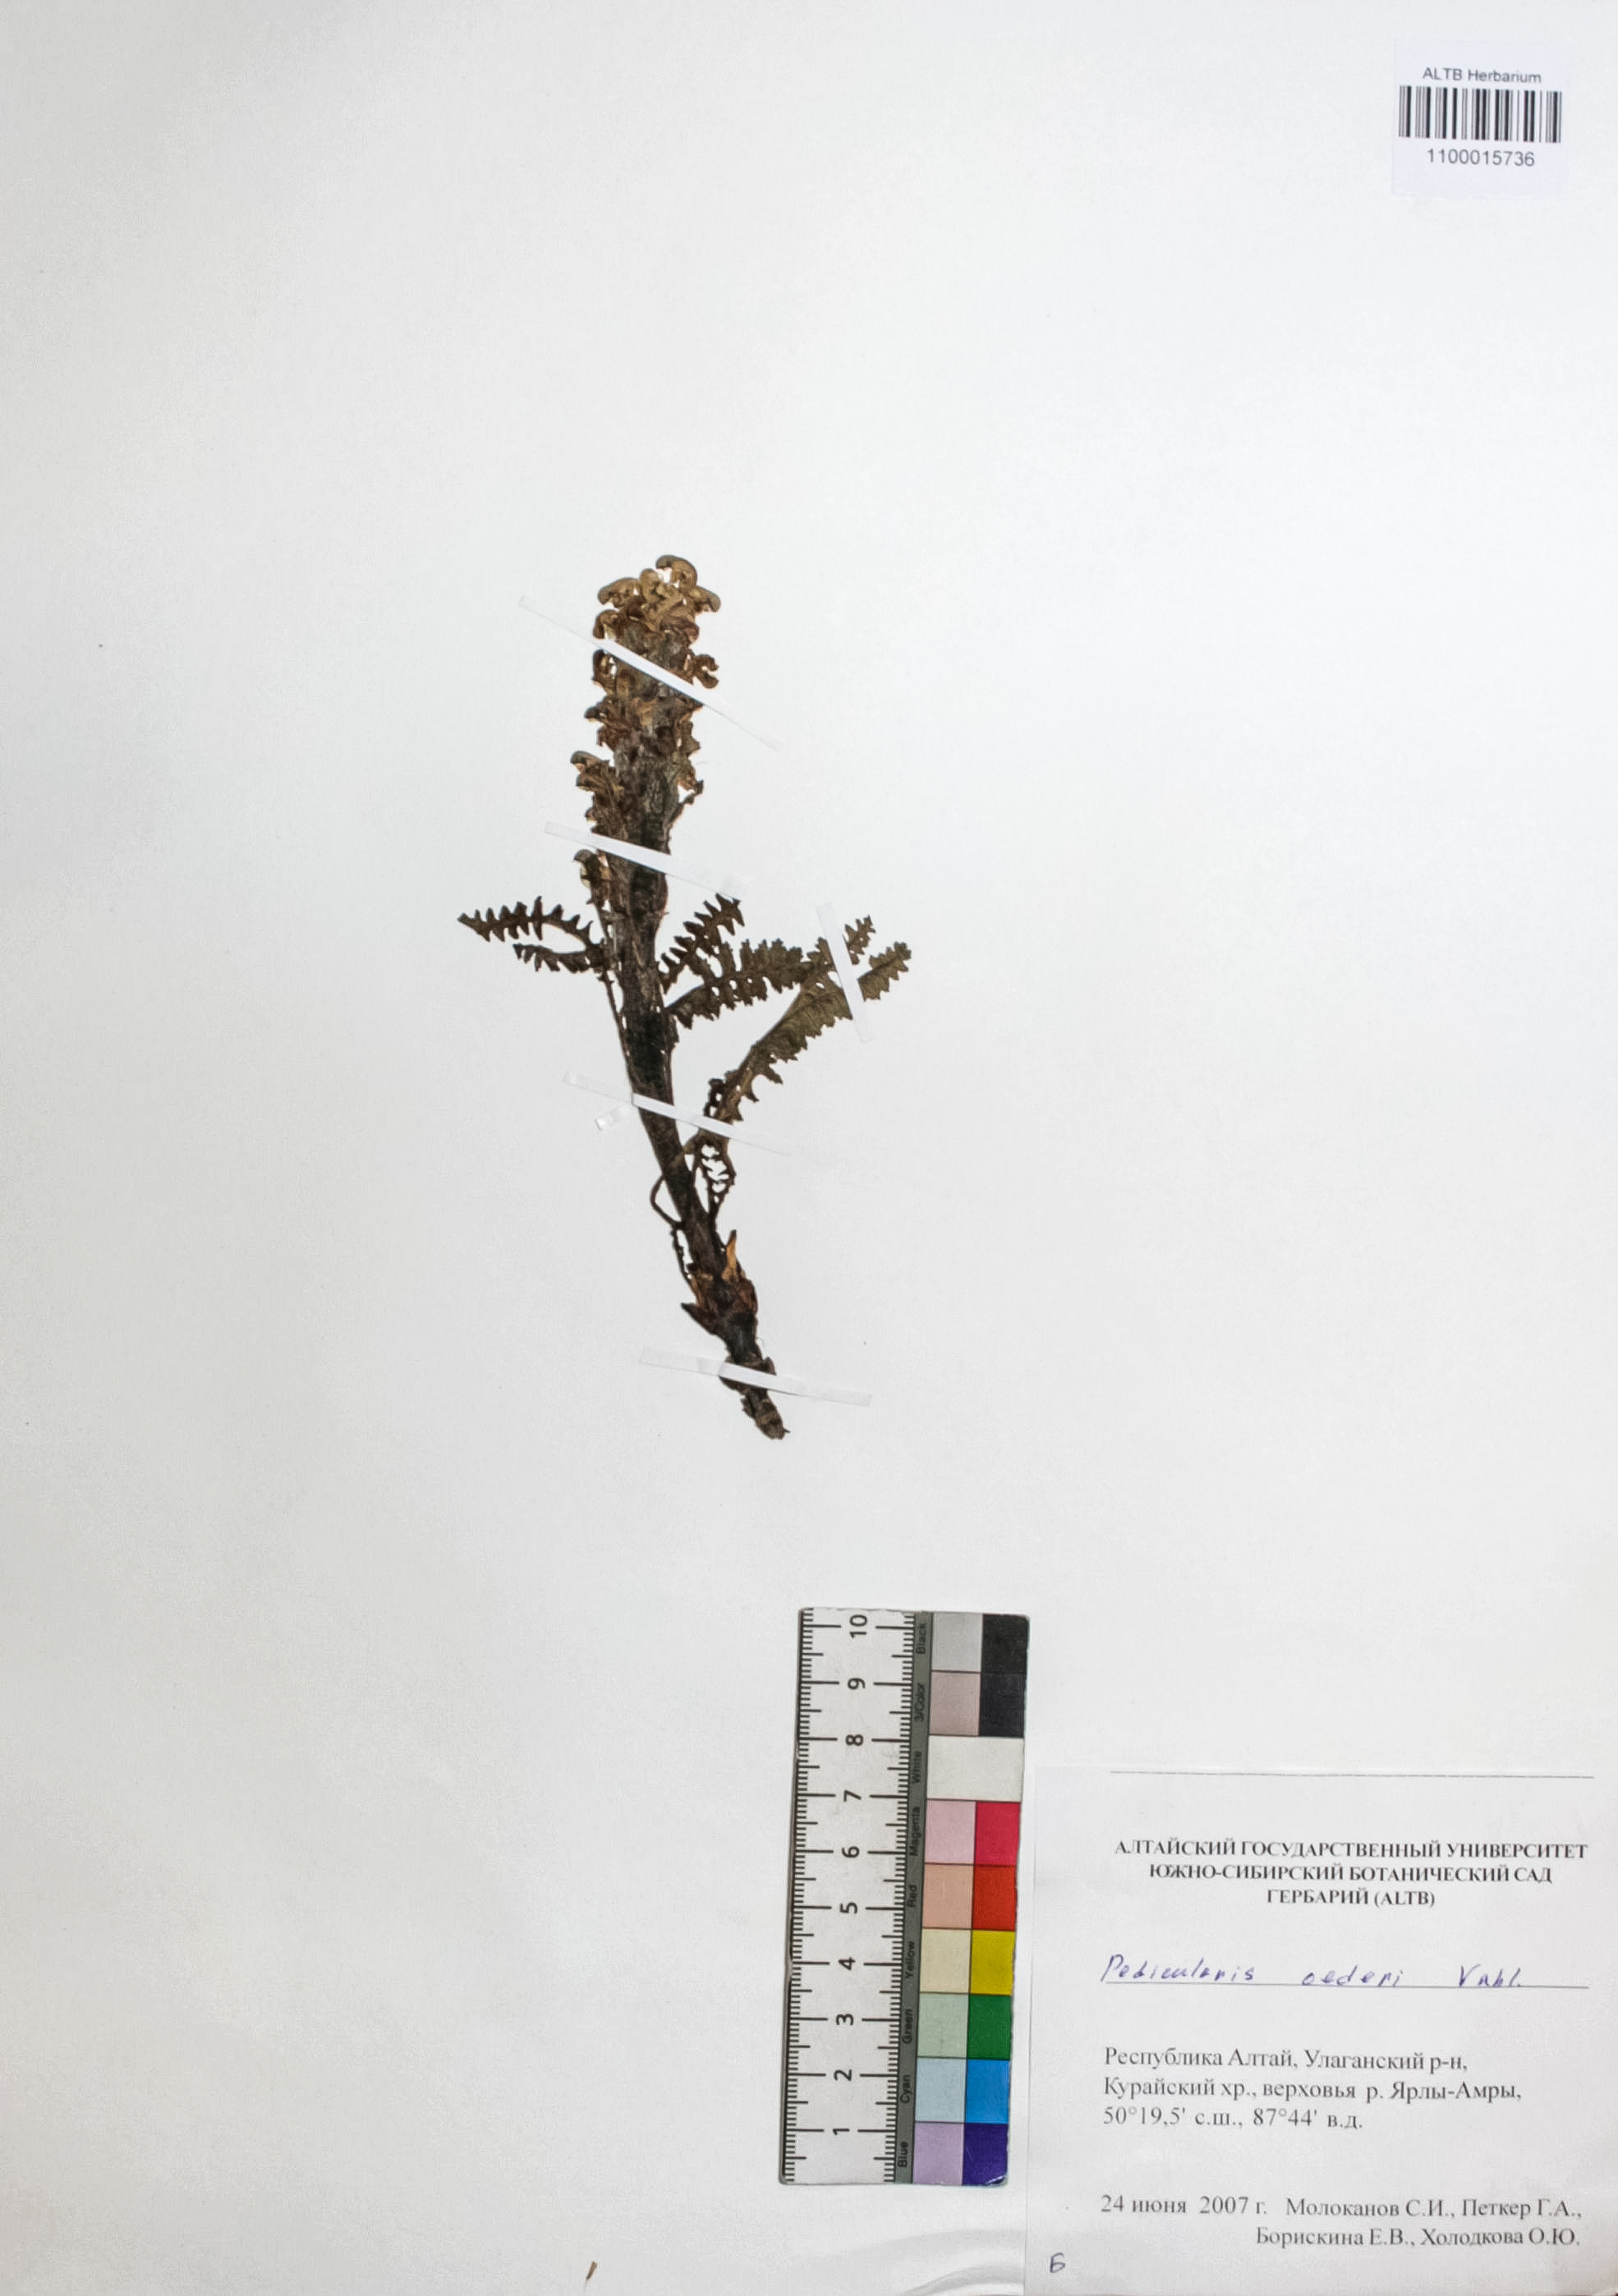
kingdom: Plantae
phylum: Tracheophyta
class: Magnoliopsida
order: Caryophyllales
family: Caryophyllaceae
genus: Silene
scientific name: Silene graminifolia
